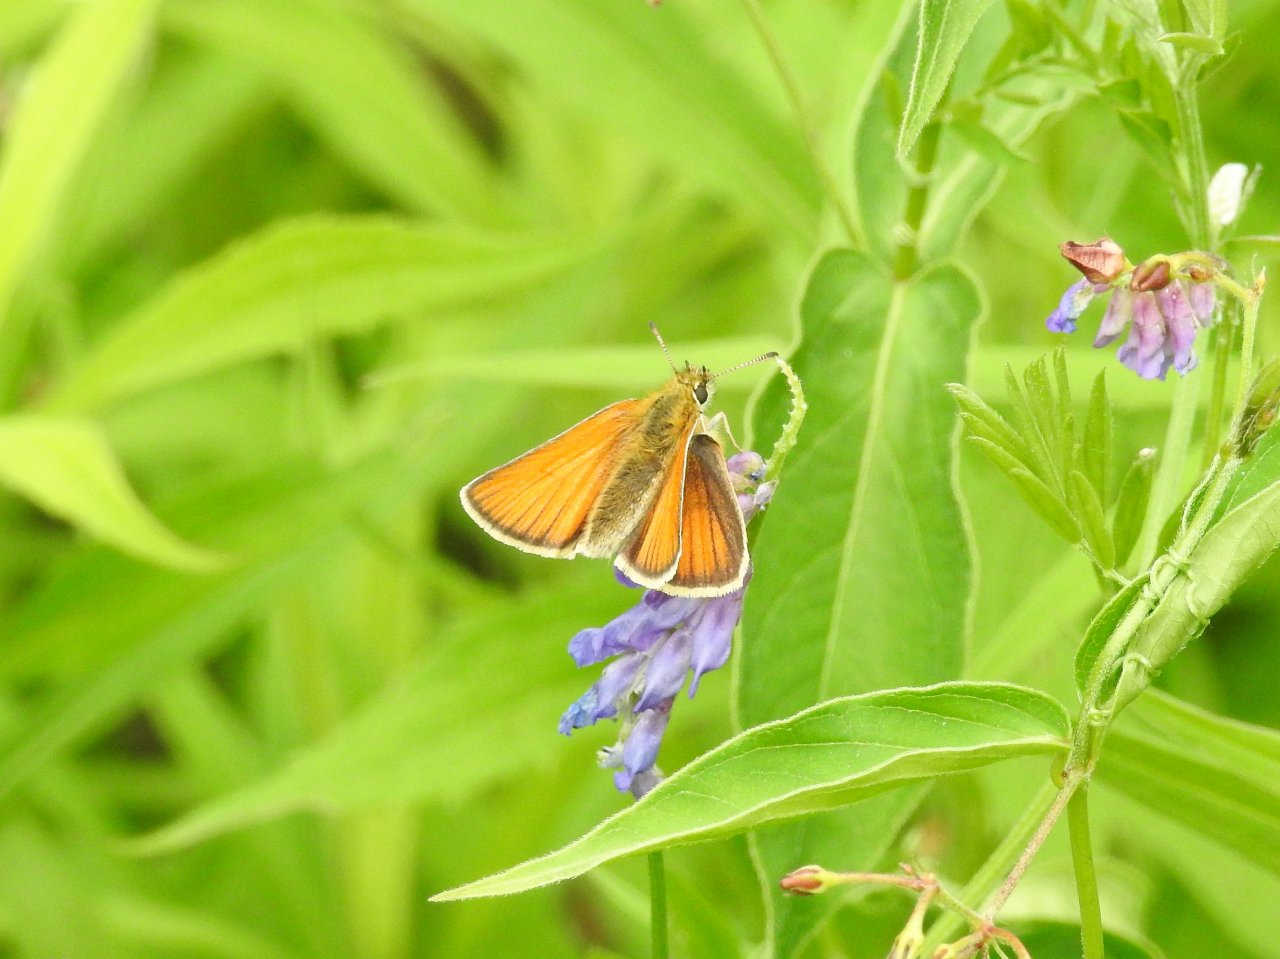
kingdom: Animalia
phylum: Arthropoda
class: Insecta
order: Lepidoptera
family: Hesperiidae
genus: Thymelicus
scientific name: Thymelicus lineola
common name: European Skipper
